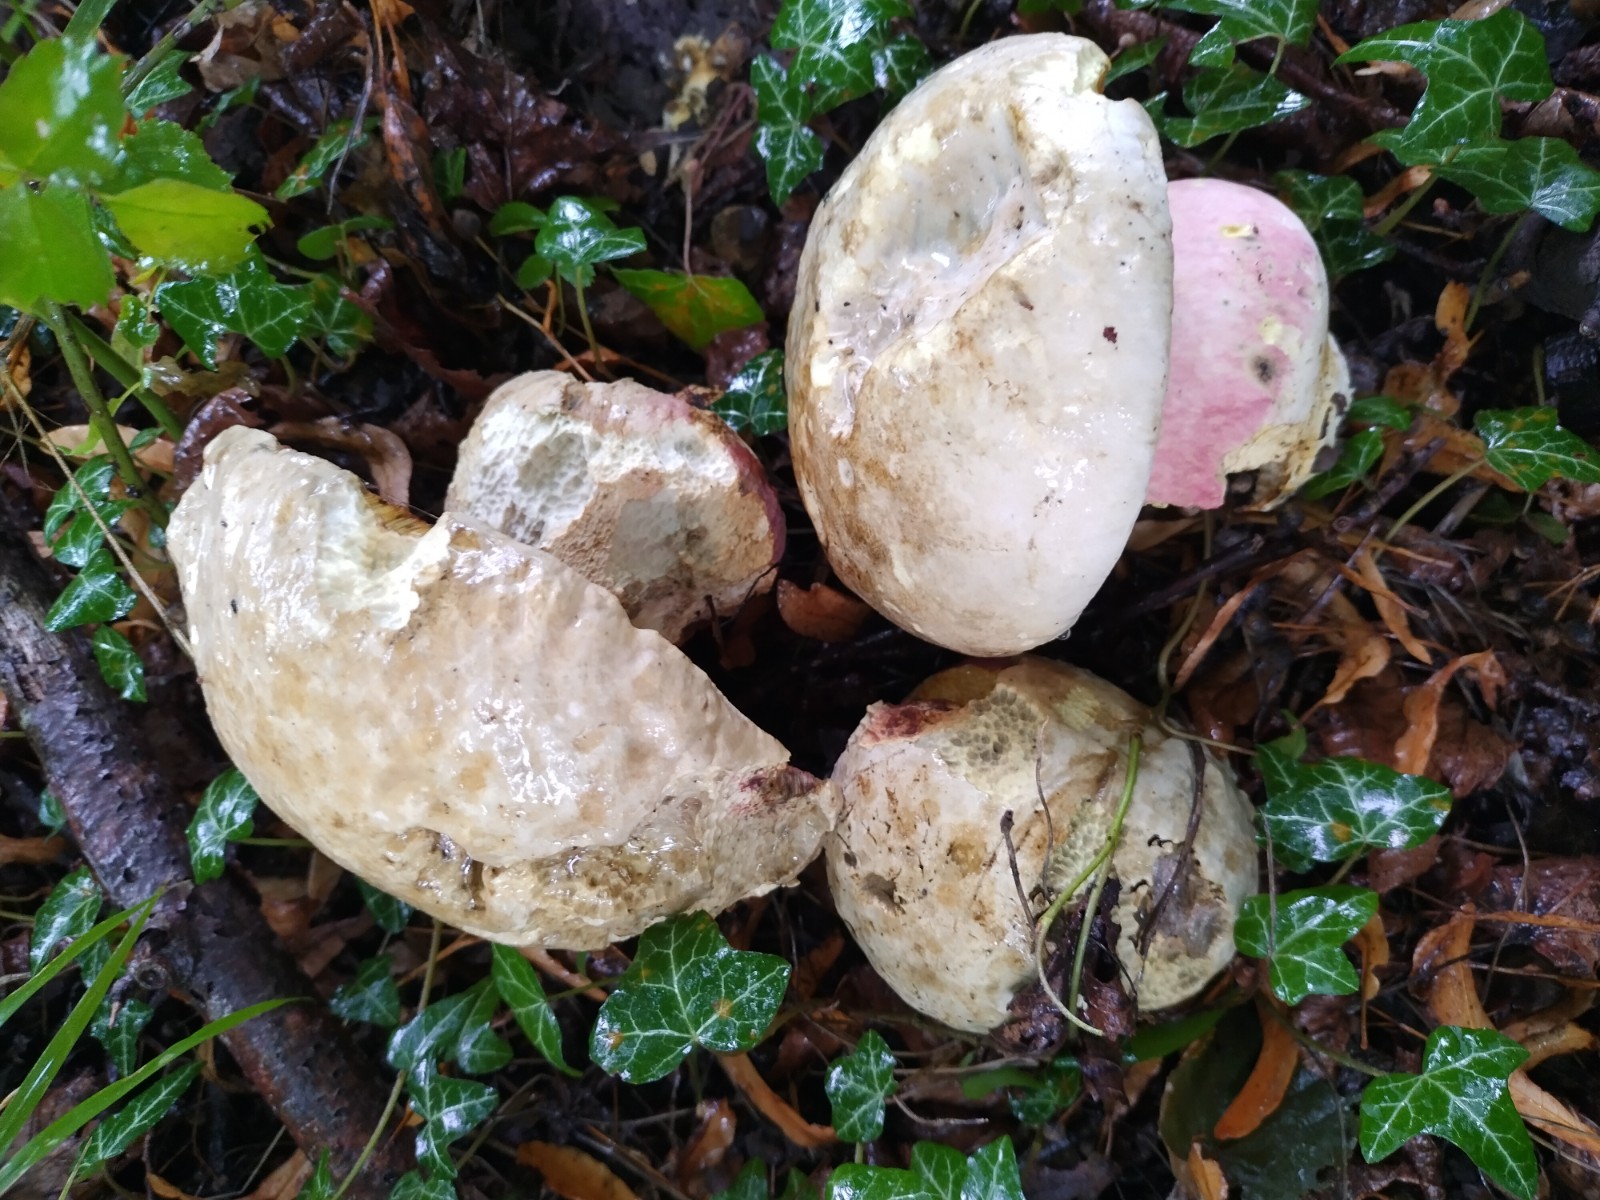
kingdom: Fungi
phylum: Basidiomycota
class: Agaricomycetes
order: Boletales
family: Boletaceae
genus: Rubroboletus
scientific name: Rubroboletus satanas
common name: Satans rørhat
